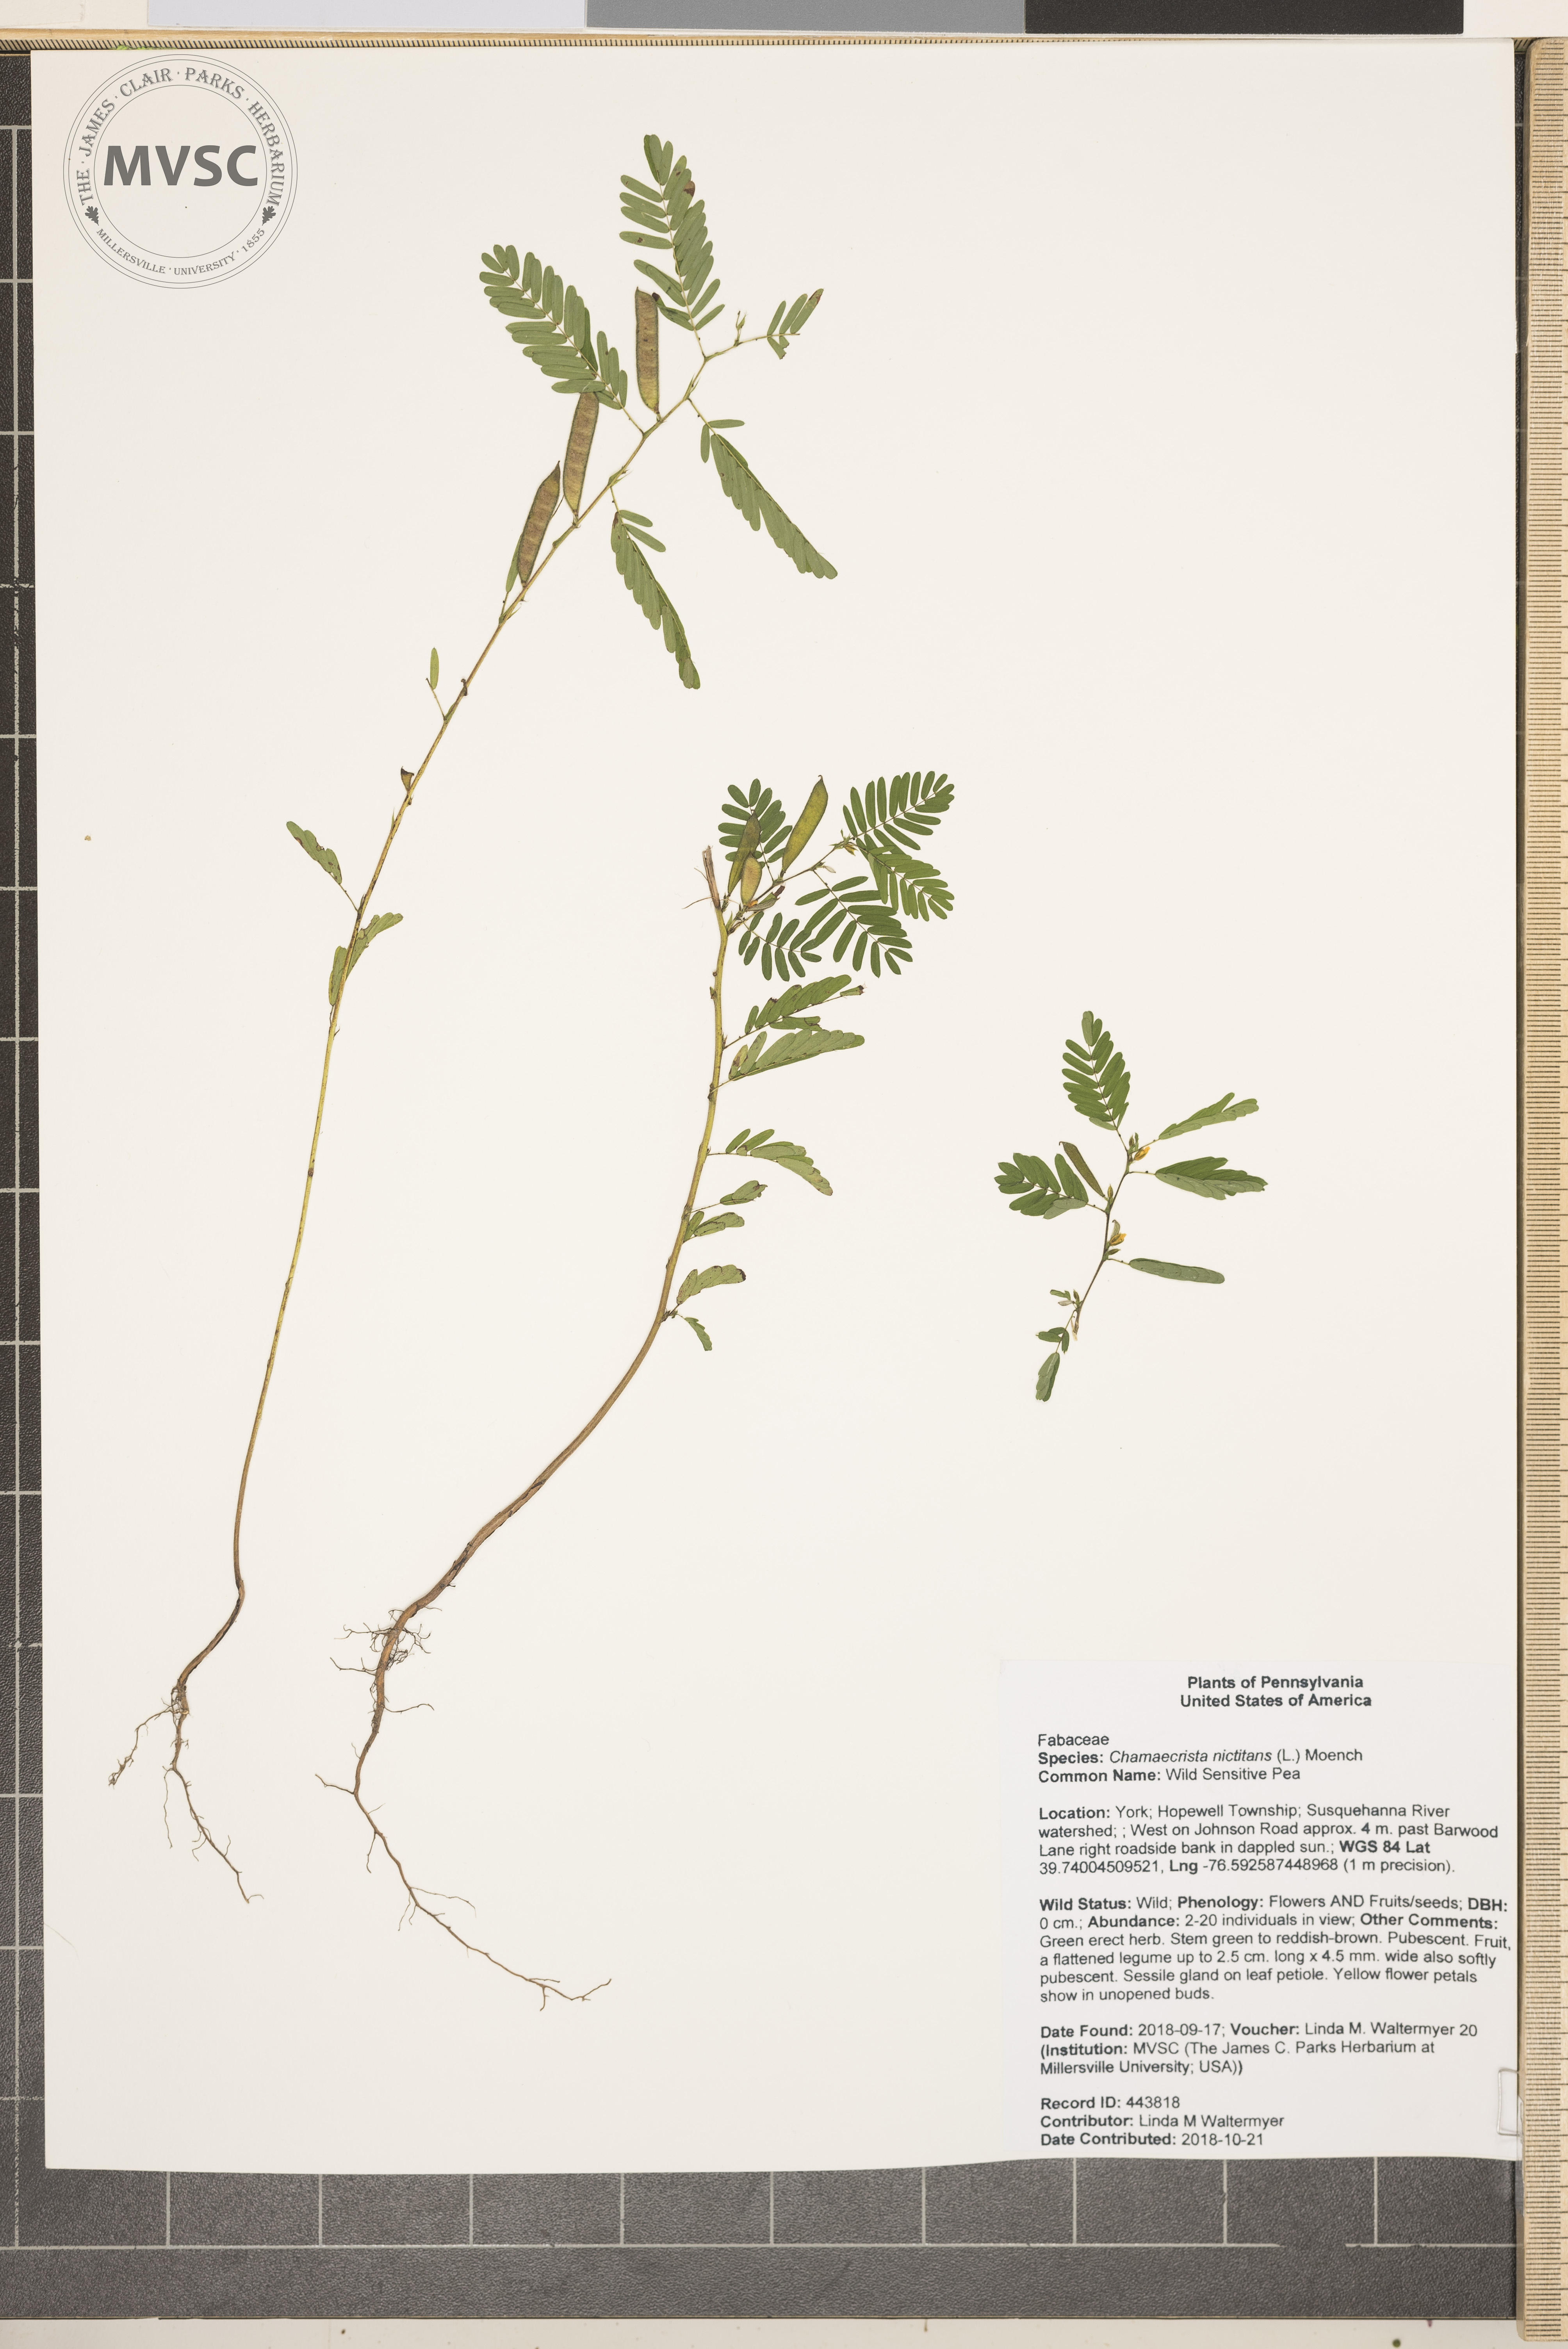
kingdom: Plantae
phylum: Tracheophyta
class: Magnoliopsida
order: Fabales
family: Fabaceae
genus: Chamaecrista
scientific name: Chamaecrista nictitans
